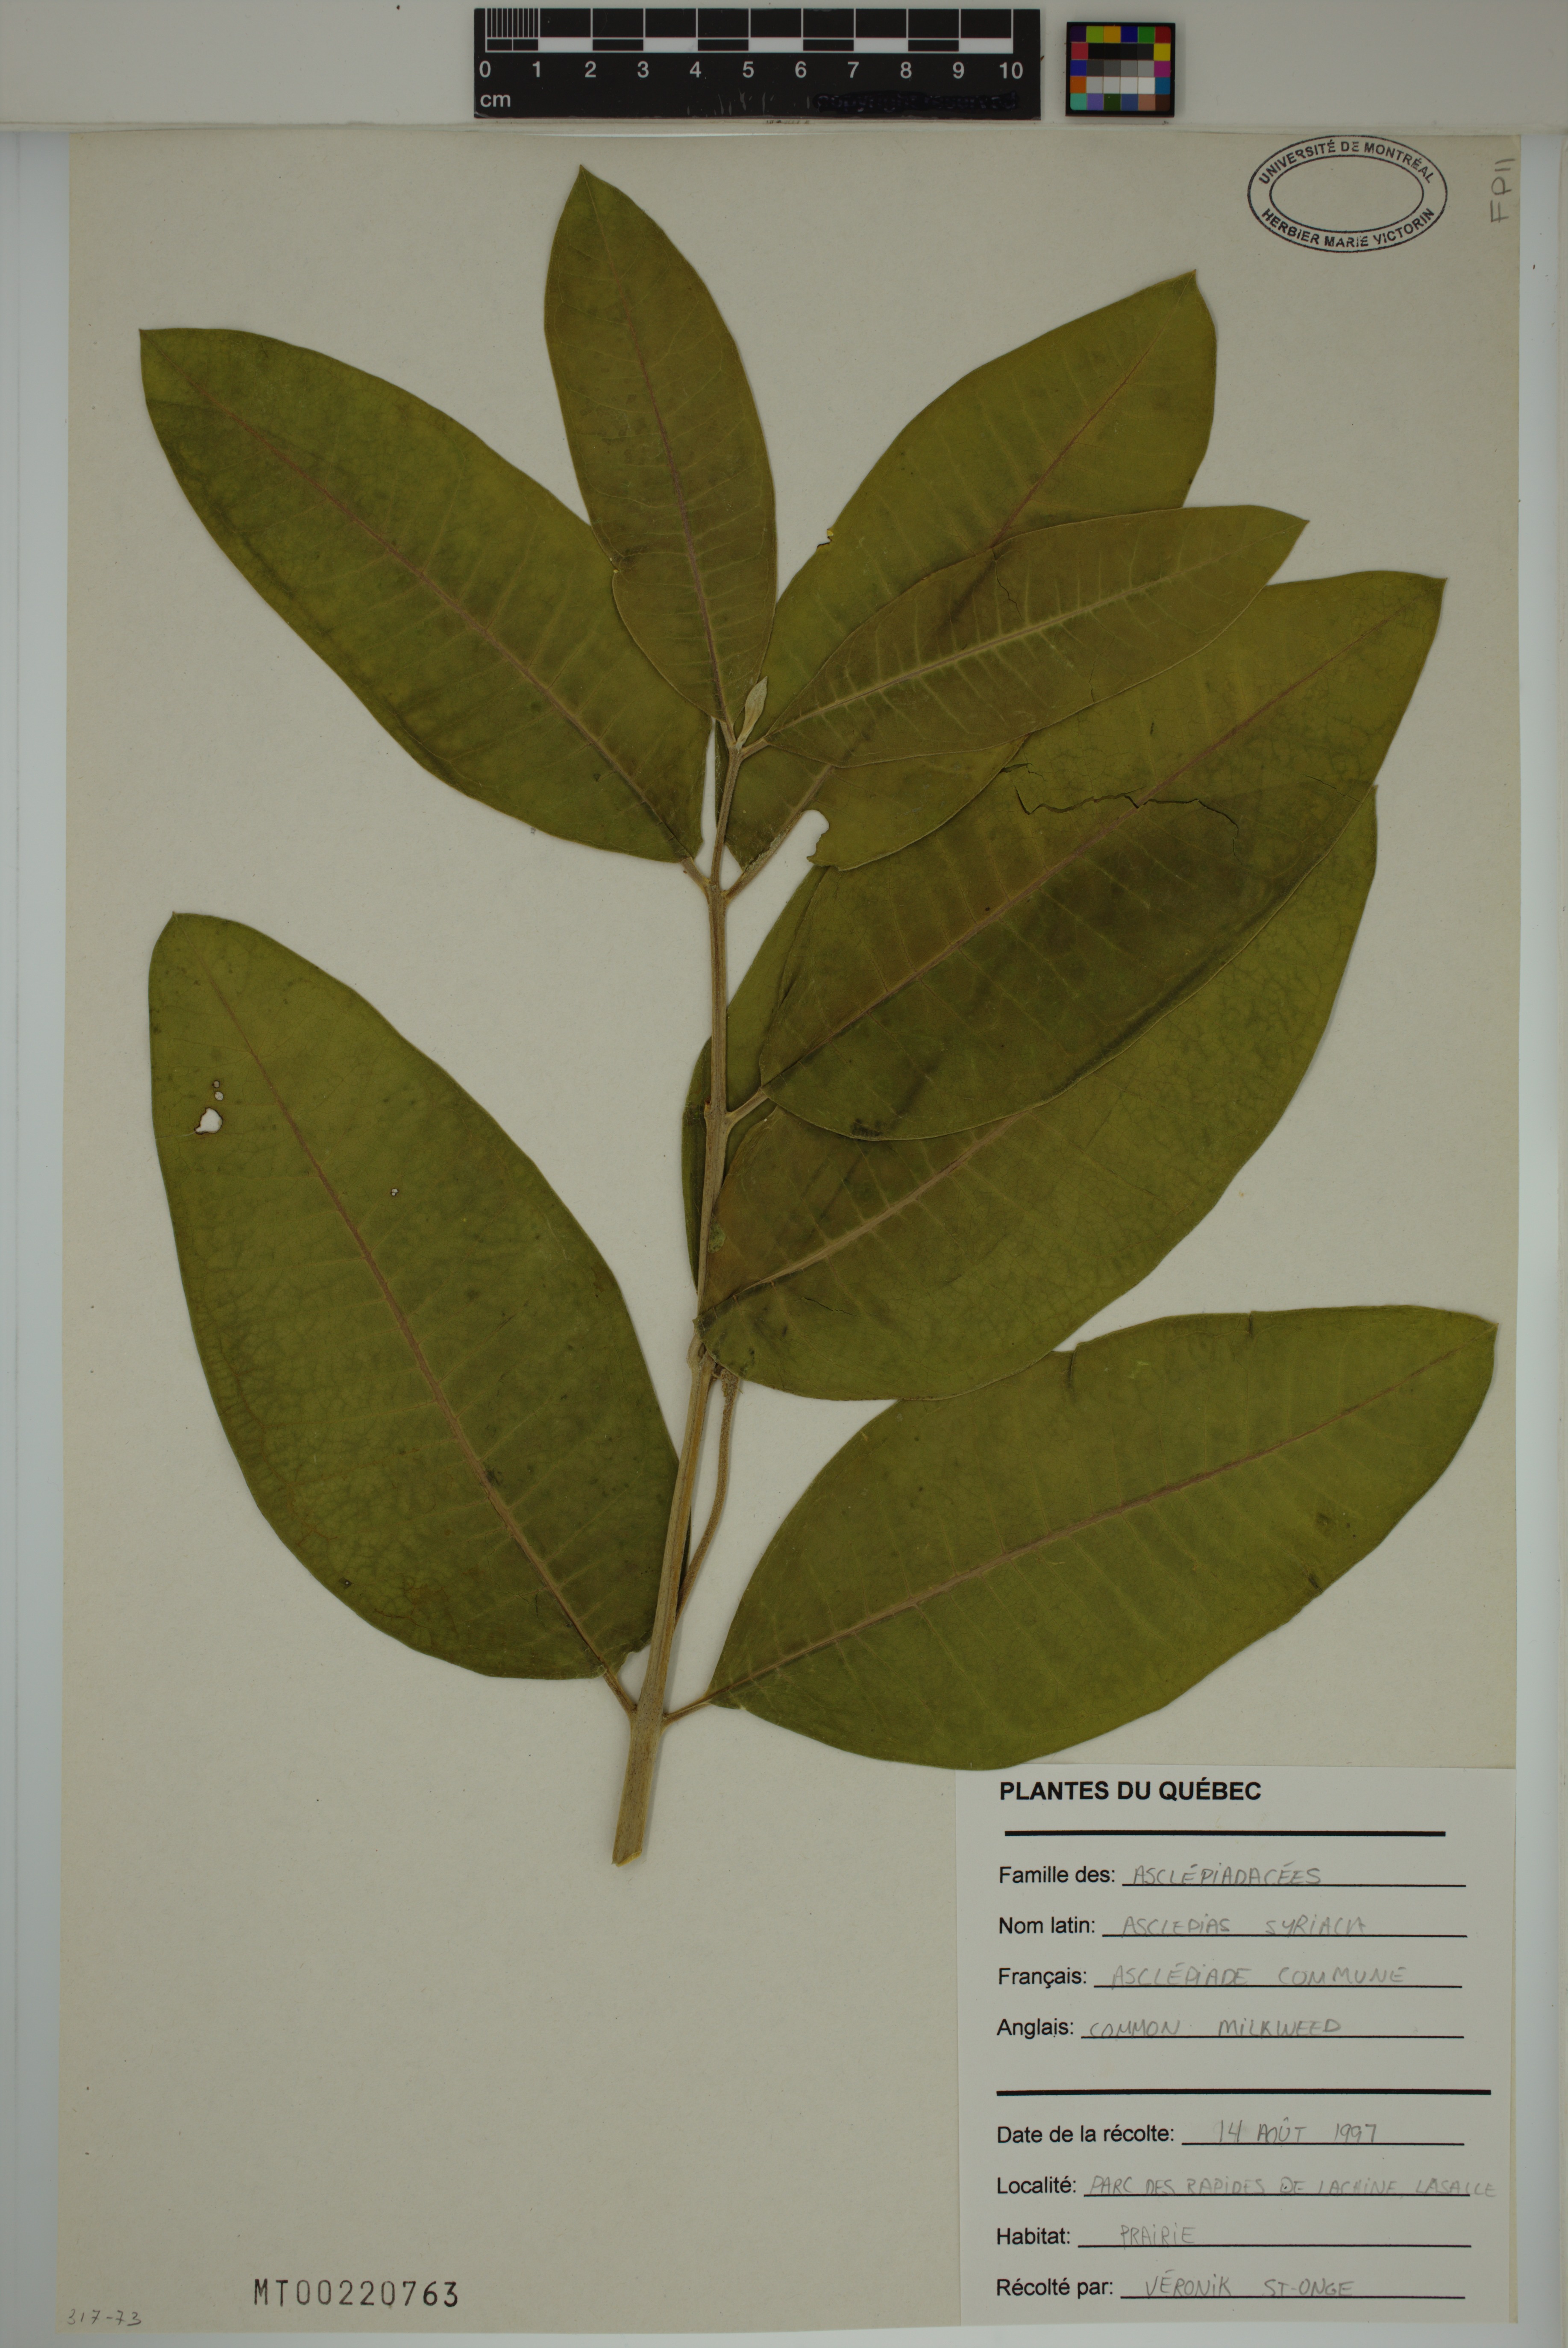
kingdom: Plantae
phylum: Tracheophyta
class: Magnoliopsida
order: Gentianales
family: Apocynaceae
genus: Asclepias
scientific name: Asclepias syriaca
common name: Common milkweed
